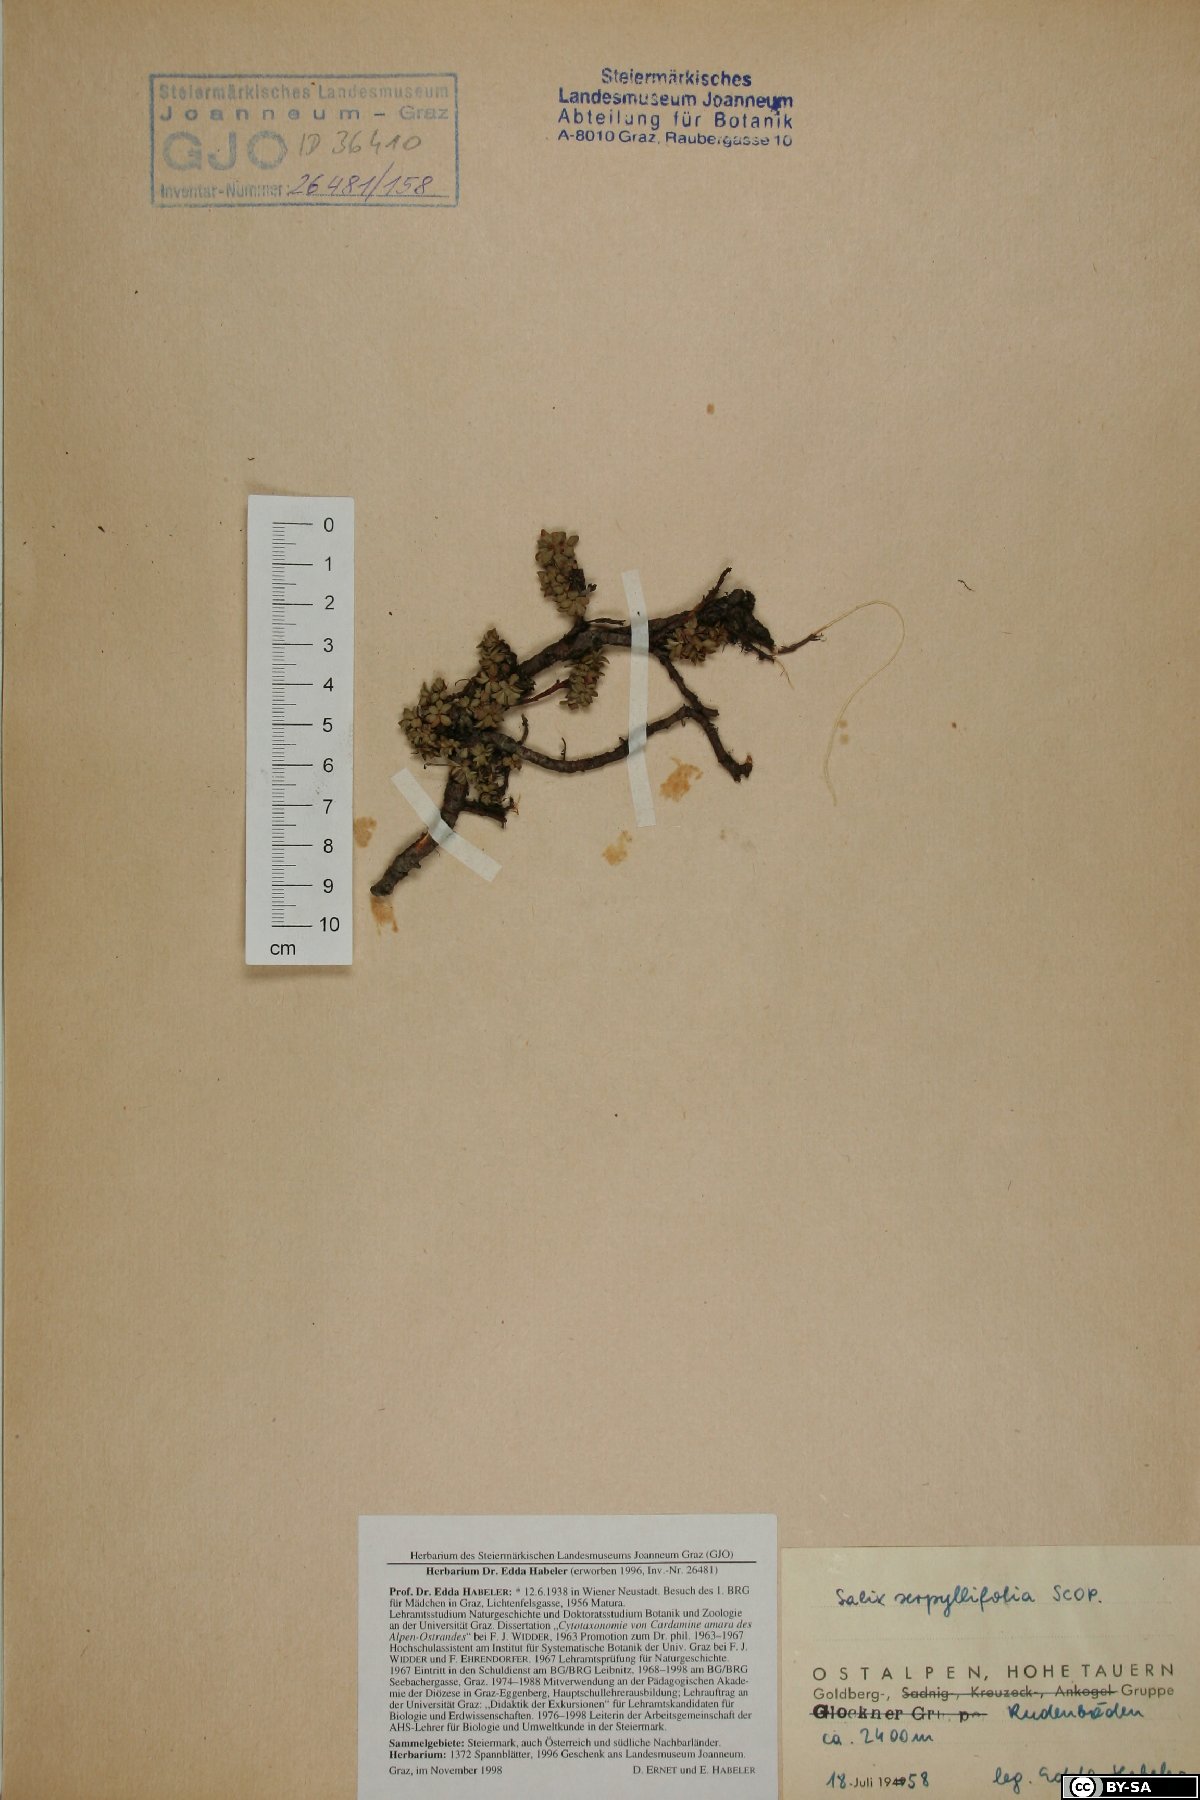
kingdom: Plantae
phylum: Tracheophyta
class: Magnoliopsida
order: Malpighiales
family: Salicaceae
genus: Salix
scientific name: Salix serpillifolia
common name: Thyme-leaf willow
